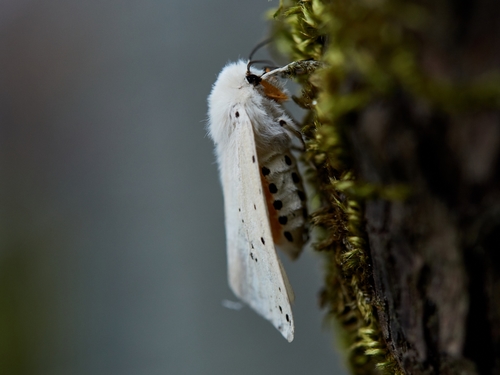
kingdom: Animalia
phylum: Arthropoda
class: Insecta
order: Lepidoptera
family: Erebidae
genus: Spilosoma
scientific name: Spilosoma lubricipeda
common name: White ermine
